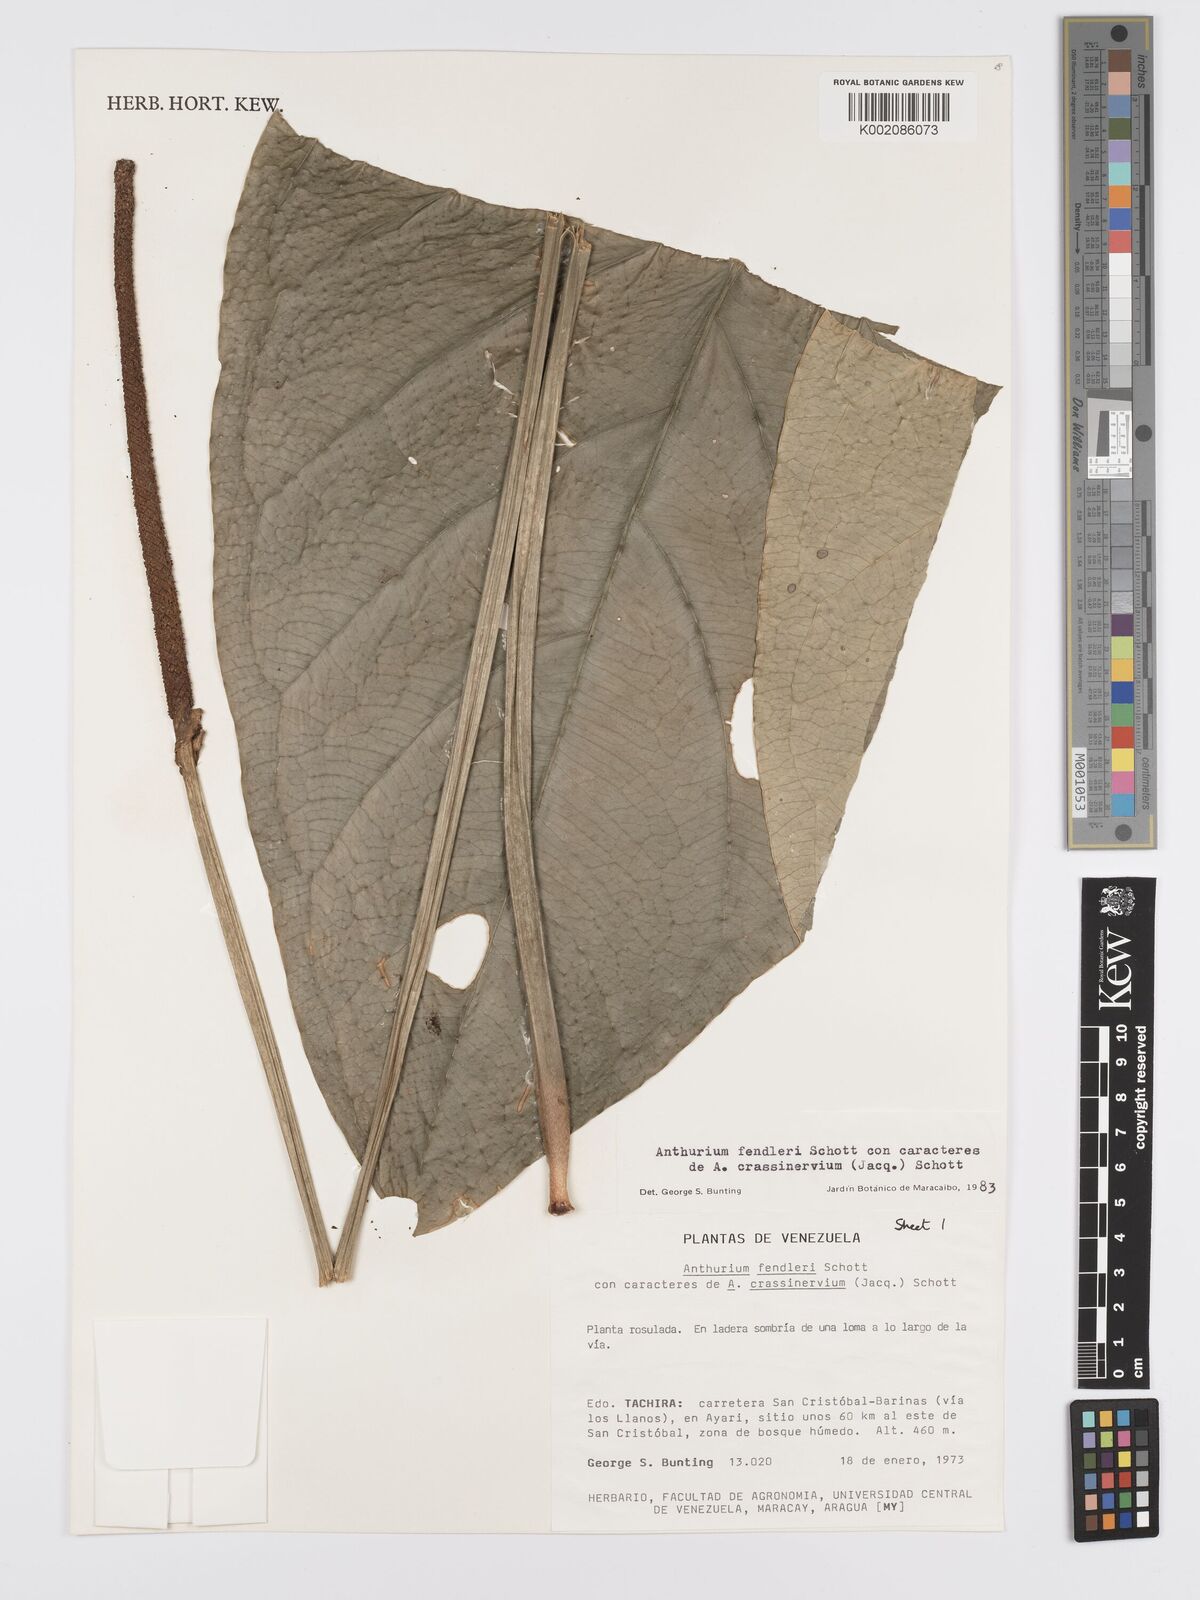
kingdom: Plantae
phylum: Tracheophyta
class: Liliopsida
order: Alismatales
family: Araceae
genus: Anthurium
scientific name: Anthurium fendleri
